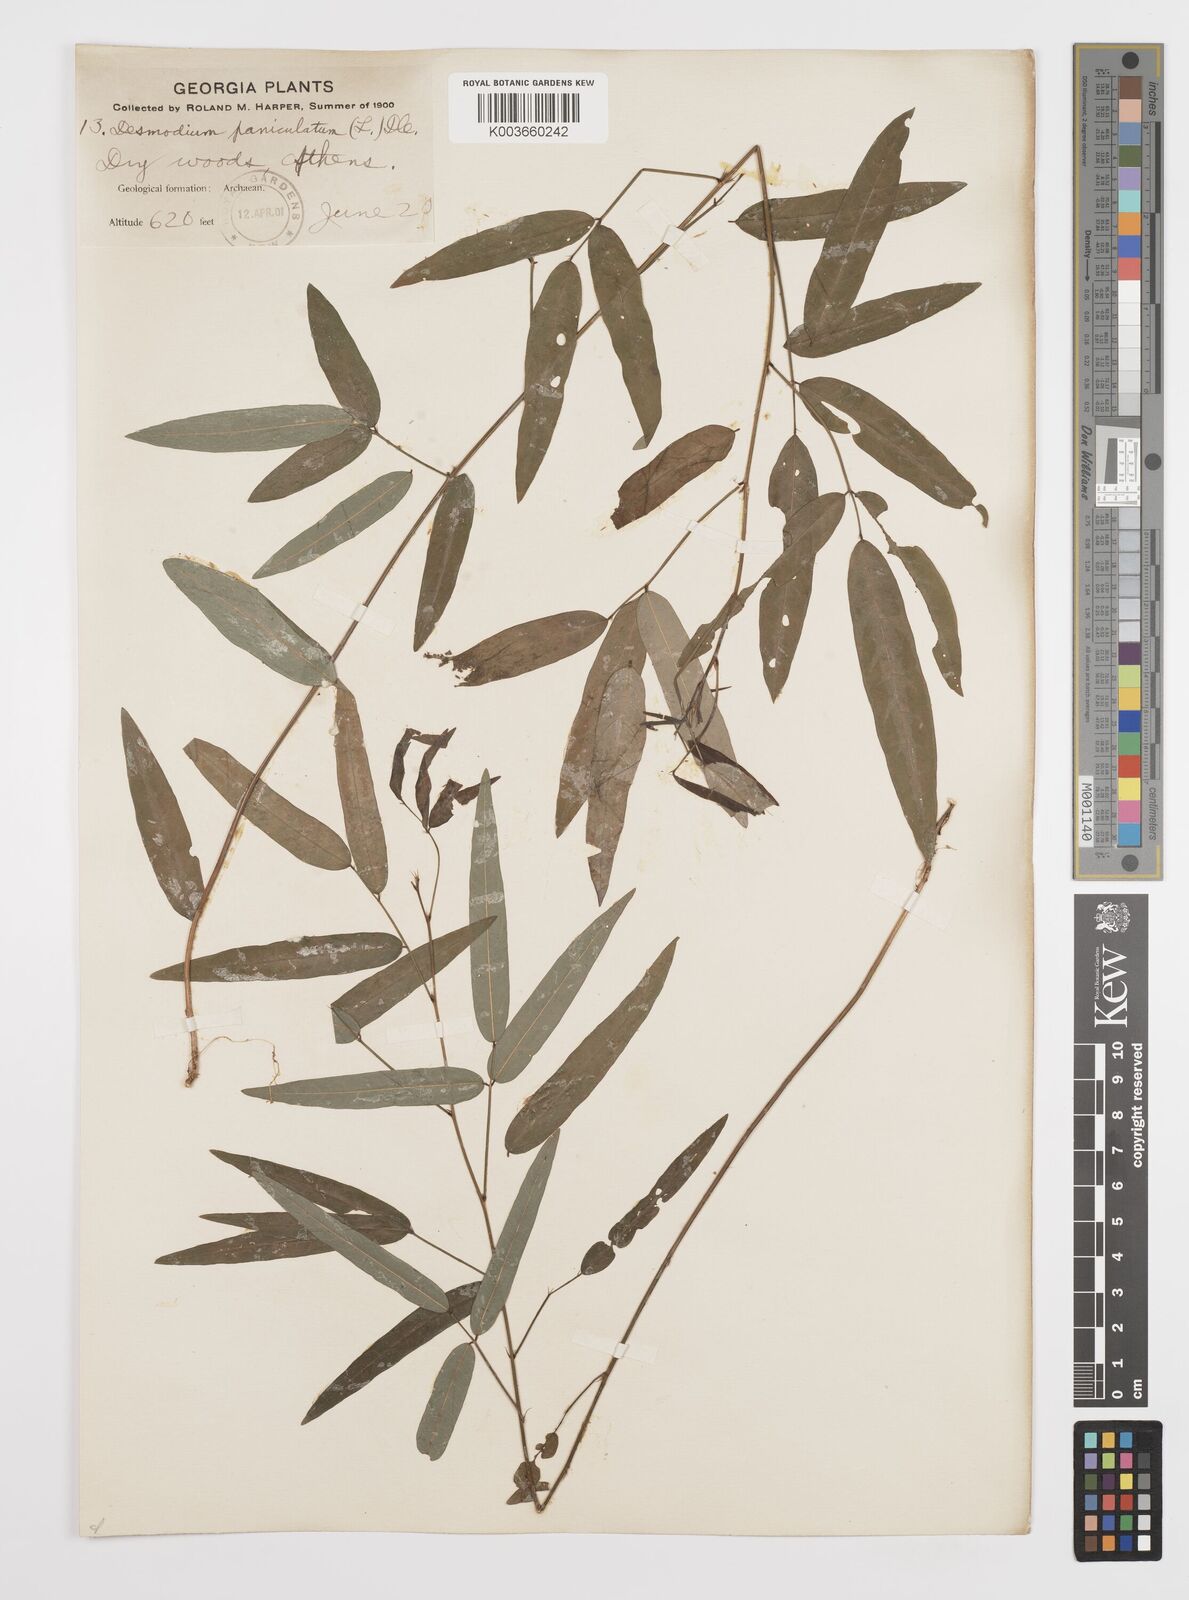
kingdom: Plantae
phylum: Tracheophyta
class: Magnoliopsida
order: Fabales
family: Fabaceae
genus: Desmodium
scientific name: Desmodium paniculatum
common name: Panicled tick-clover
